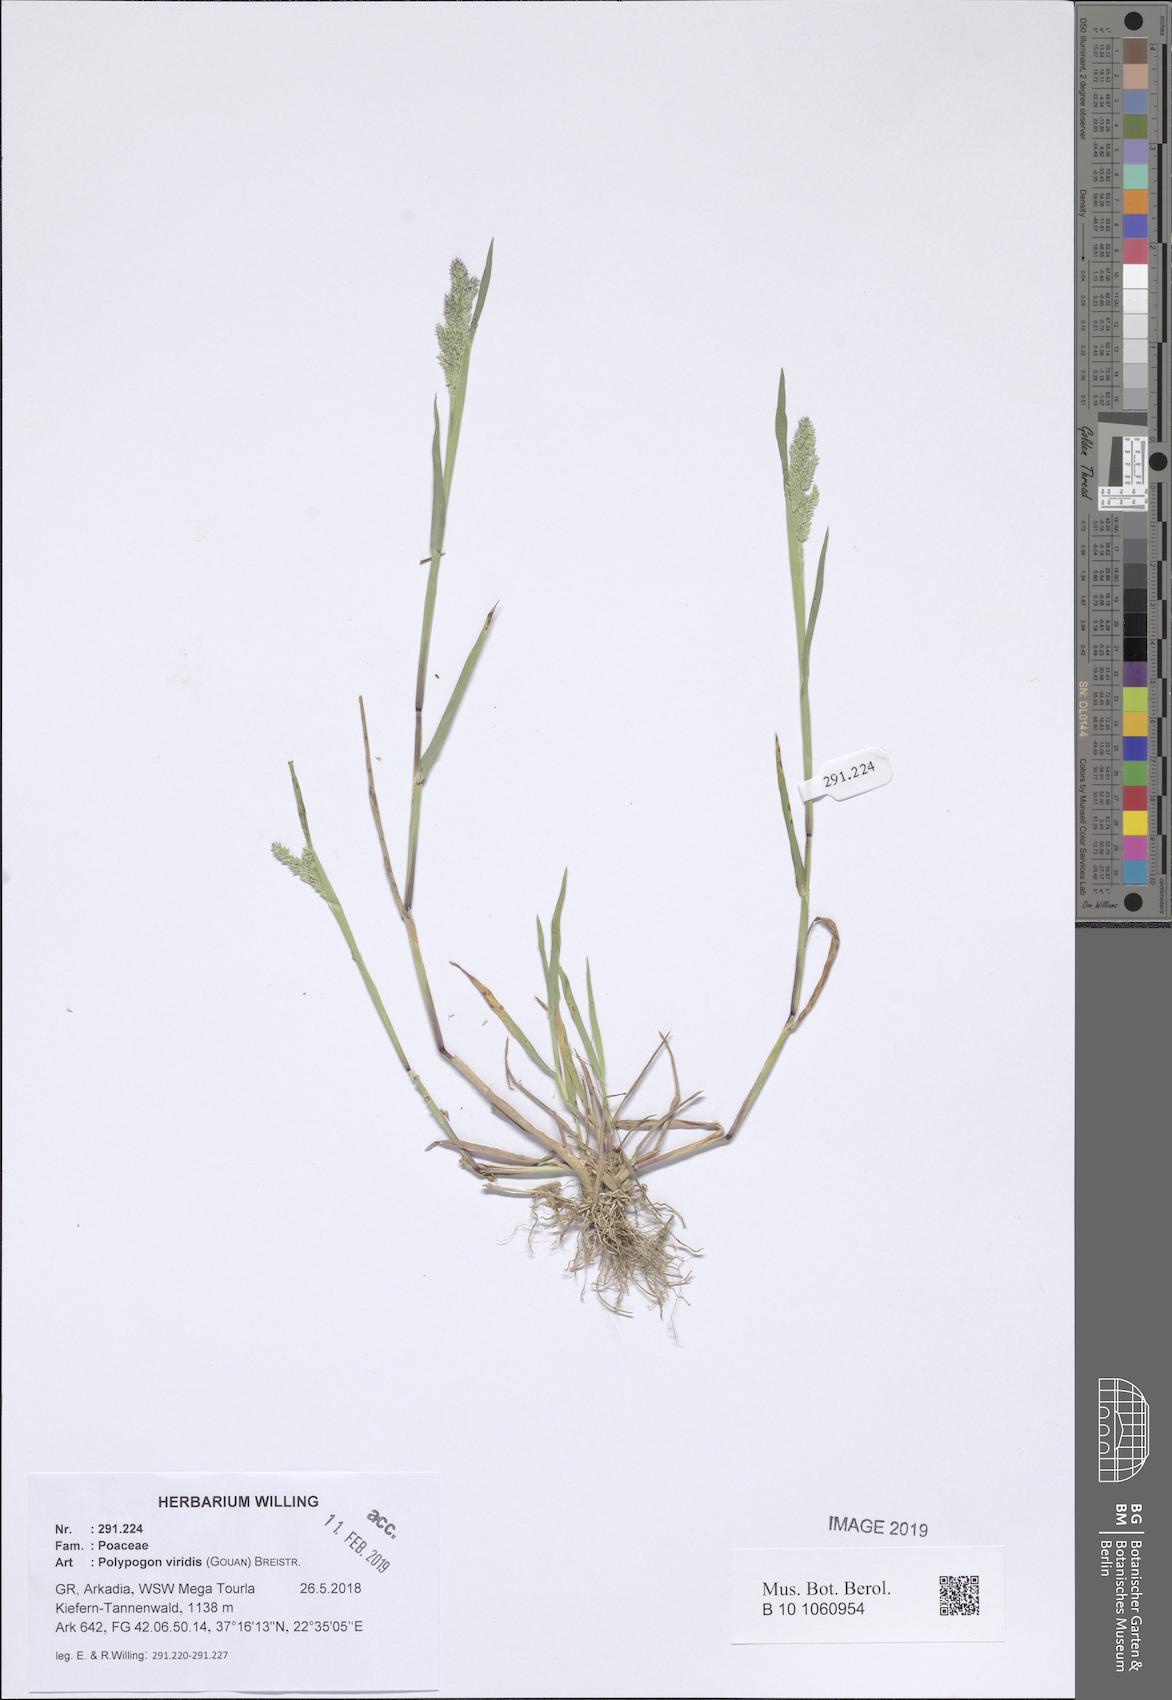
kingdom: Plantae
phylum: Tracheophyta
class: Liliopsida
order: Poales
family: Poaceae
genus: Polypogon
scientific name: Polypogon viridis
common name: Water bent
